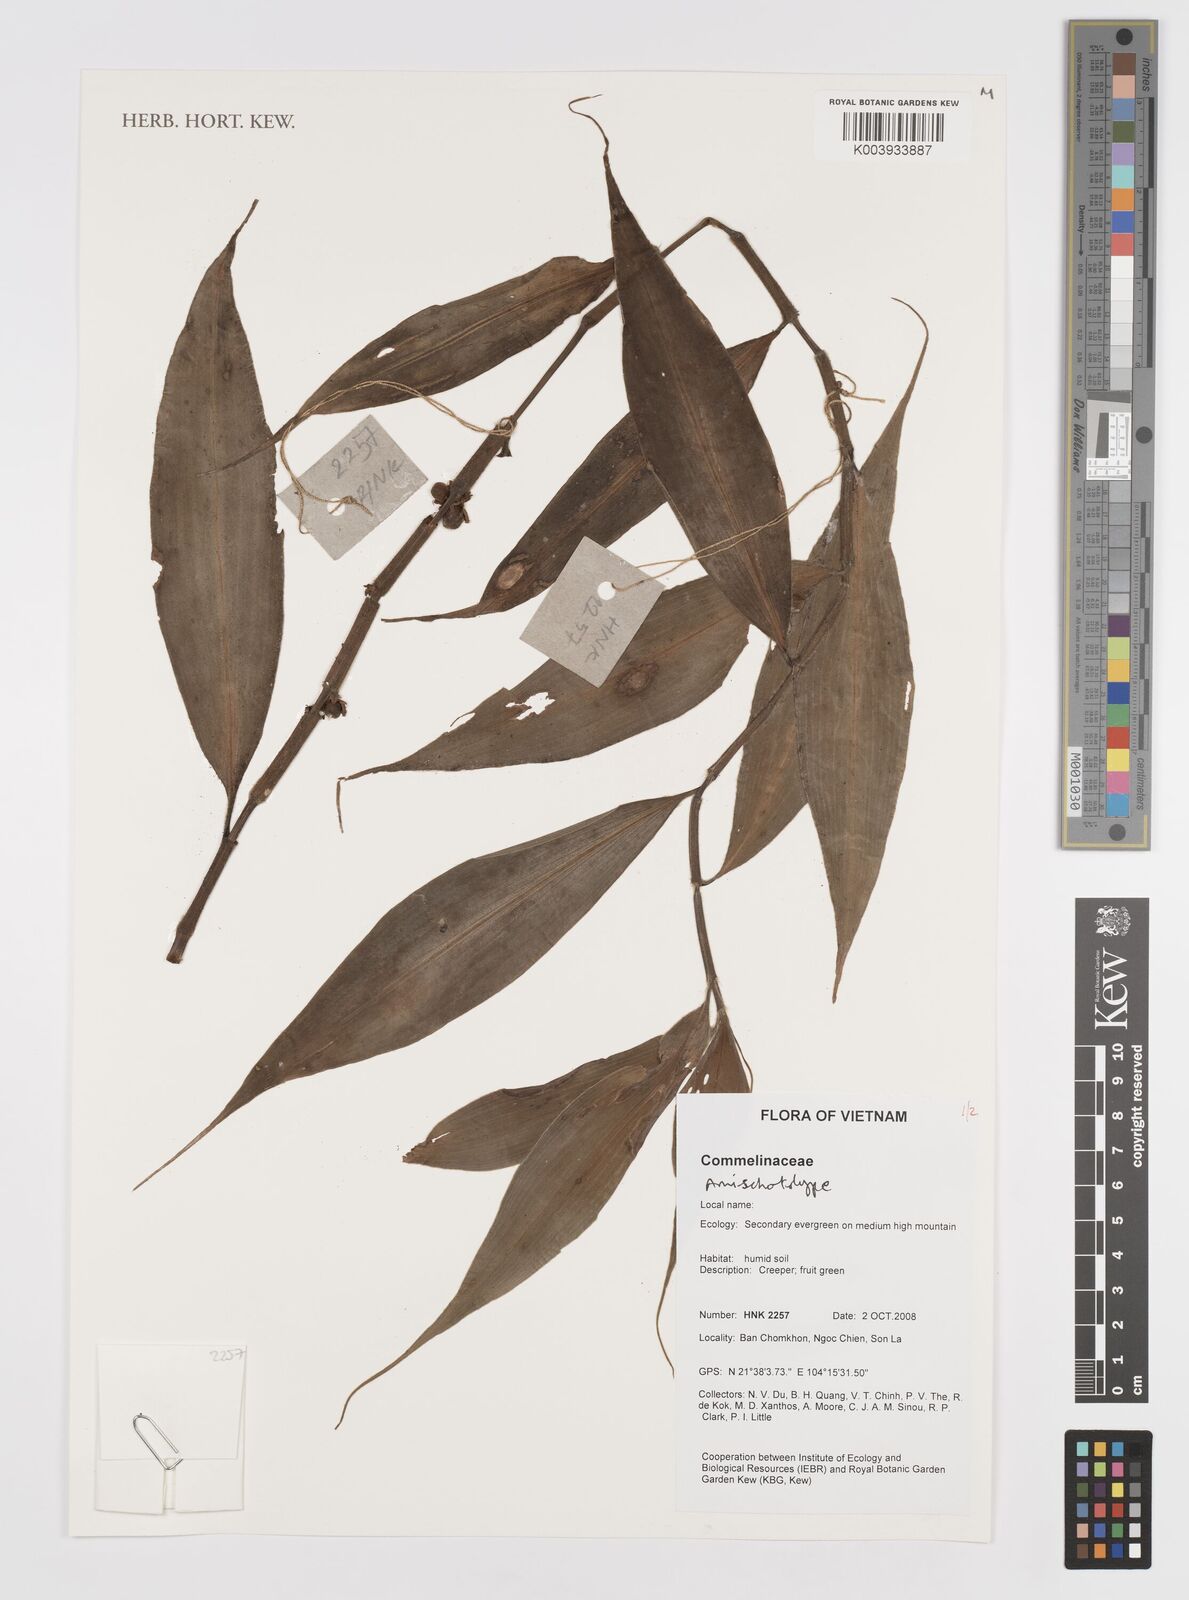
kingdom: Plantae
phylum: Tracheophyta
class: Liliopsida
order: Commelinales
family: Commelinaceae
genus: Amischotolype
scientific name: Amischotolype
